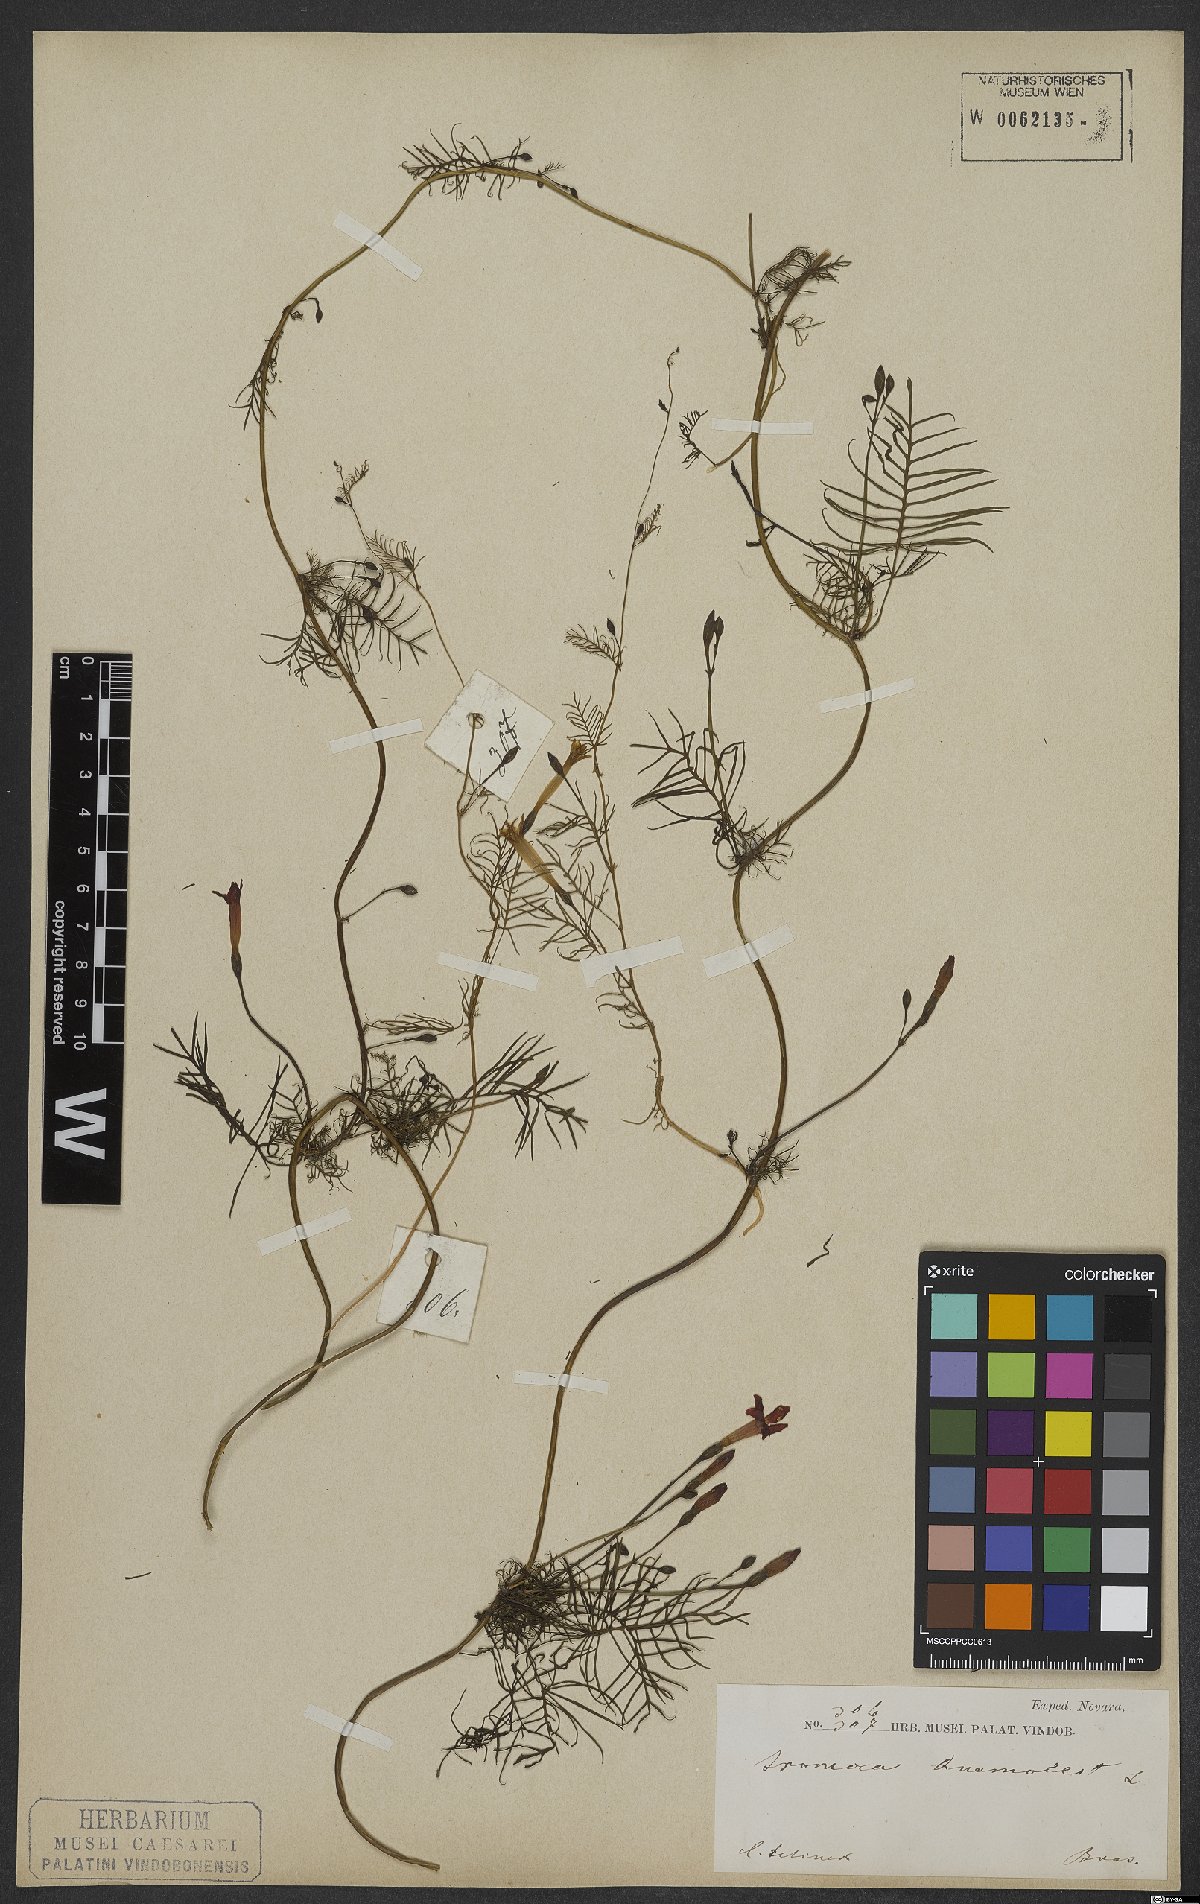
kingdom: Plantae
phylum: Tracheophyta
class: Magnoliopsida
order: Solanales
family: Convolvulaceae
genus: Ipomoea
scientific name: Ipomoea quamoclit
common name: Cypress vine
